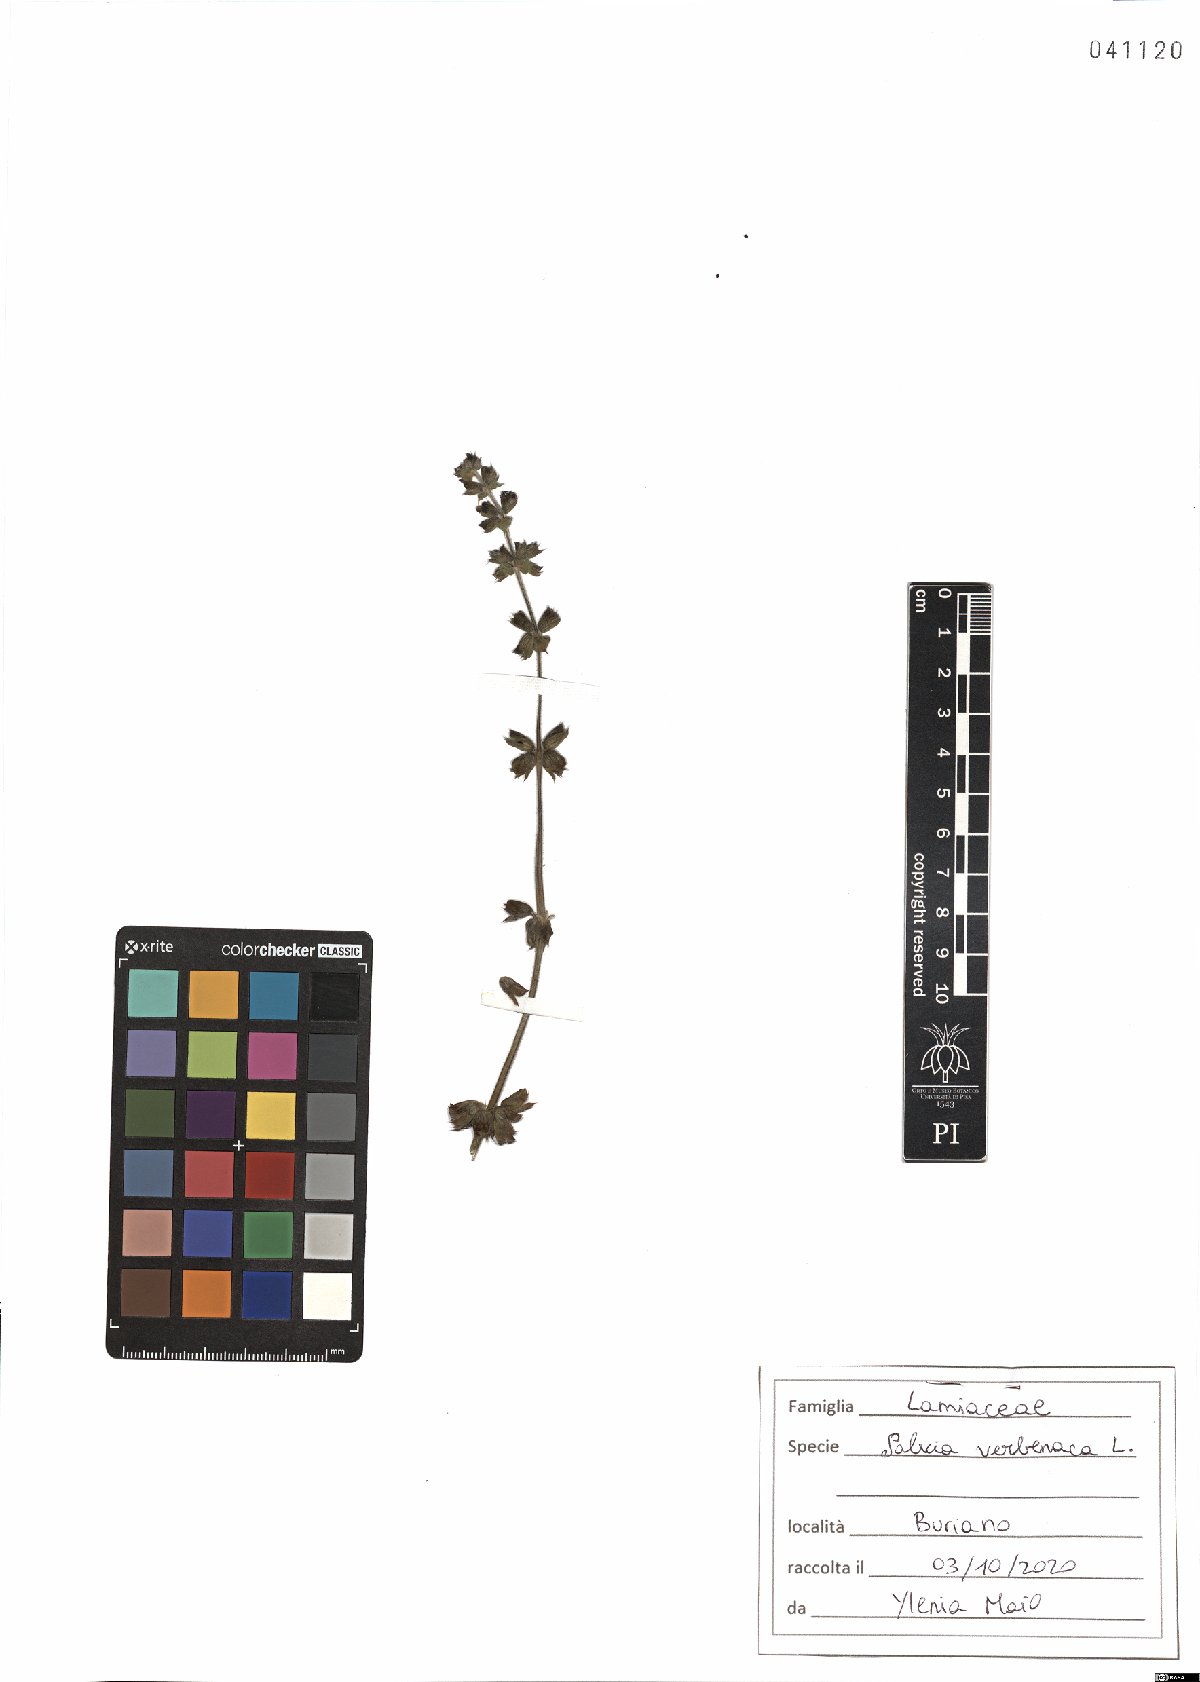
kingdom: Plantae
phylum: Tracheophyta
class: Magnoliopsida
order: Lamiales
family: Lamiaceae
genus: Salvia
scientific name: Salvia verbenaca
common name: Wild clary
